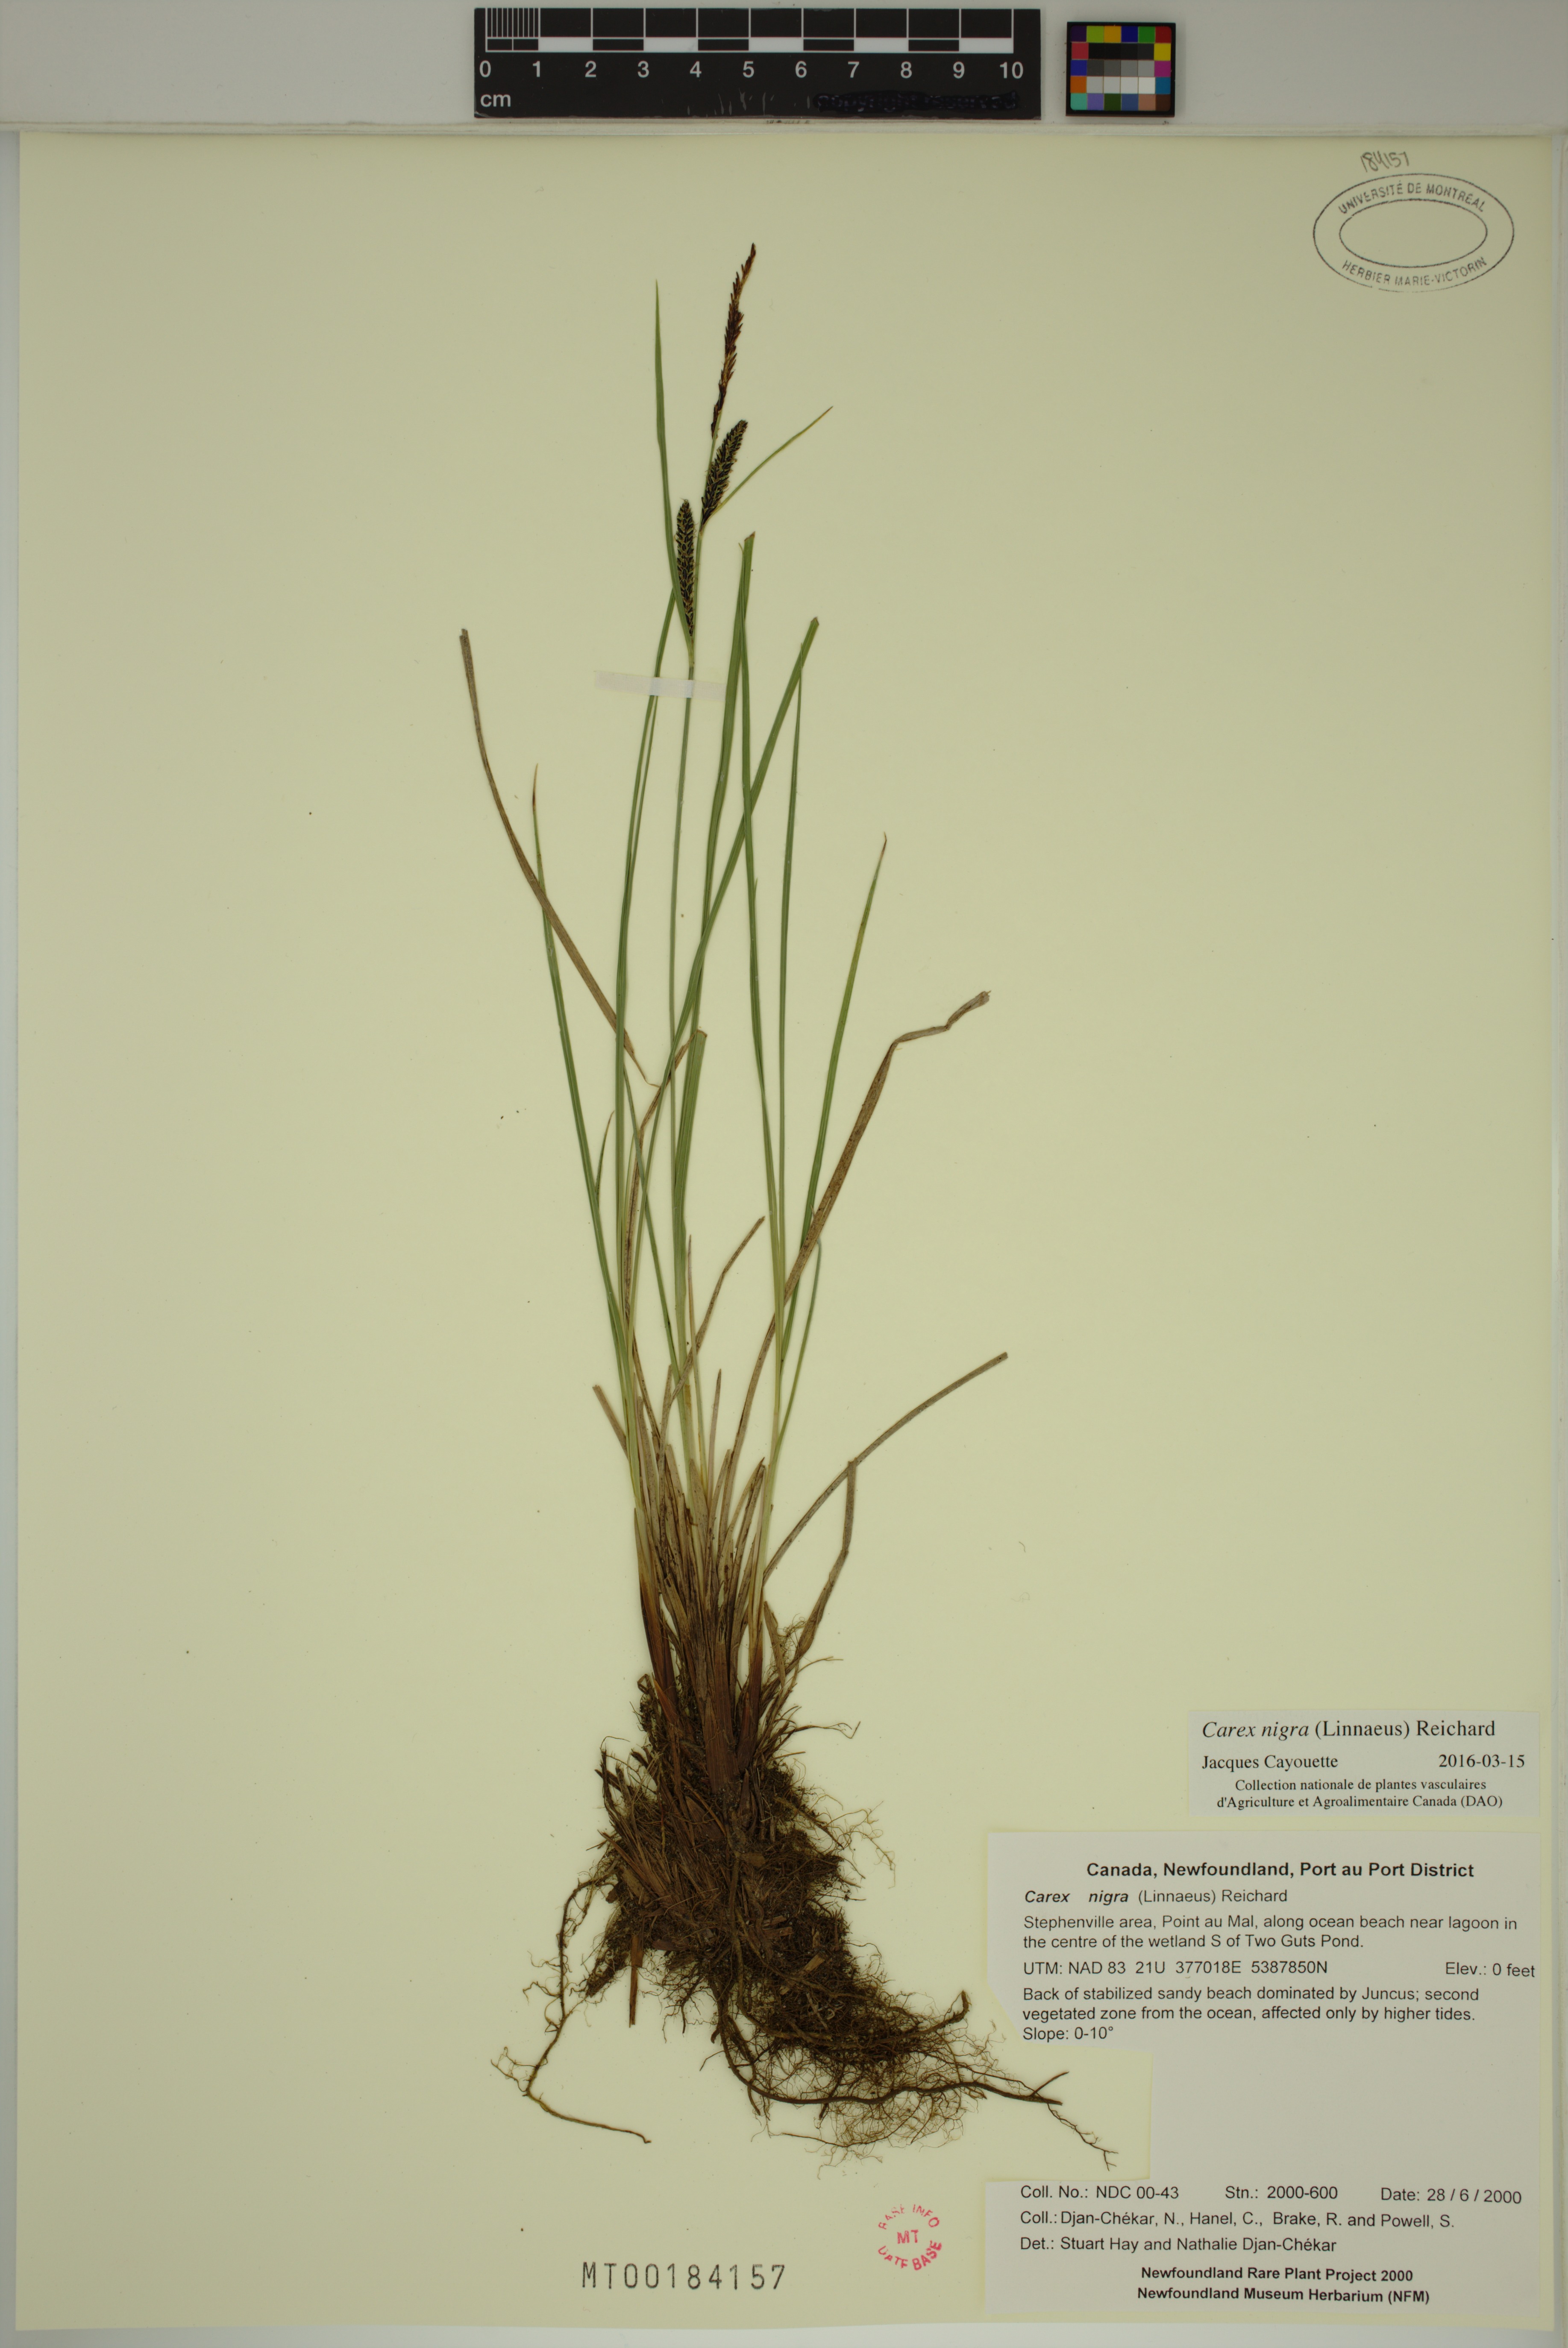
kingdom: Plantae
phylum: Tracheophyta
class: Liliopsida
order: Poales
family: Cyperaceae
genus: Carex
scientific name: Carex nigra
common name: Common sedge
